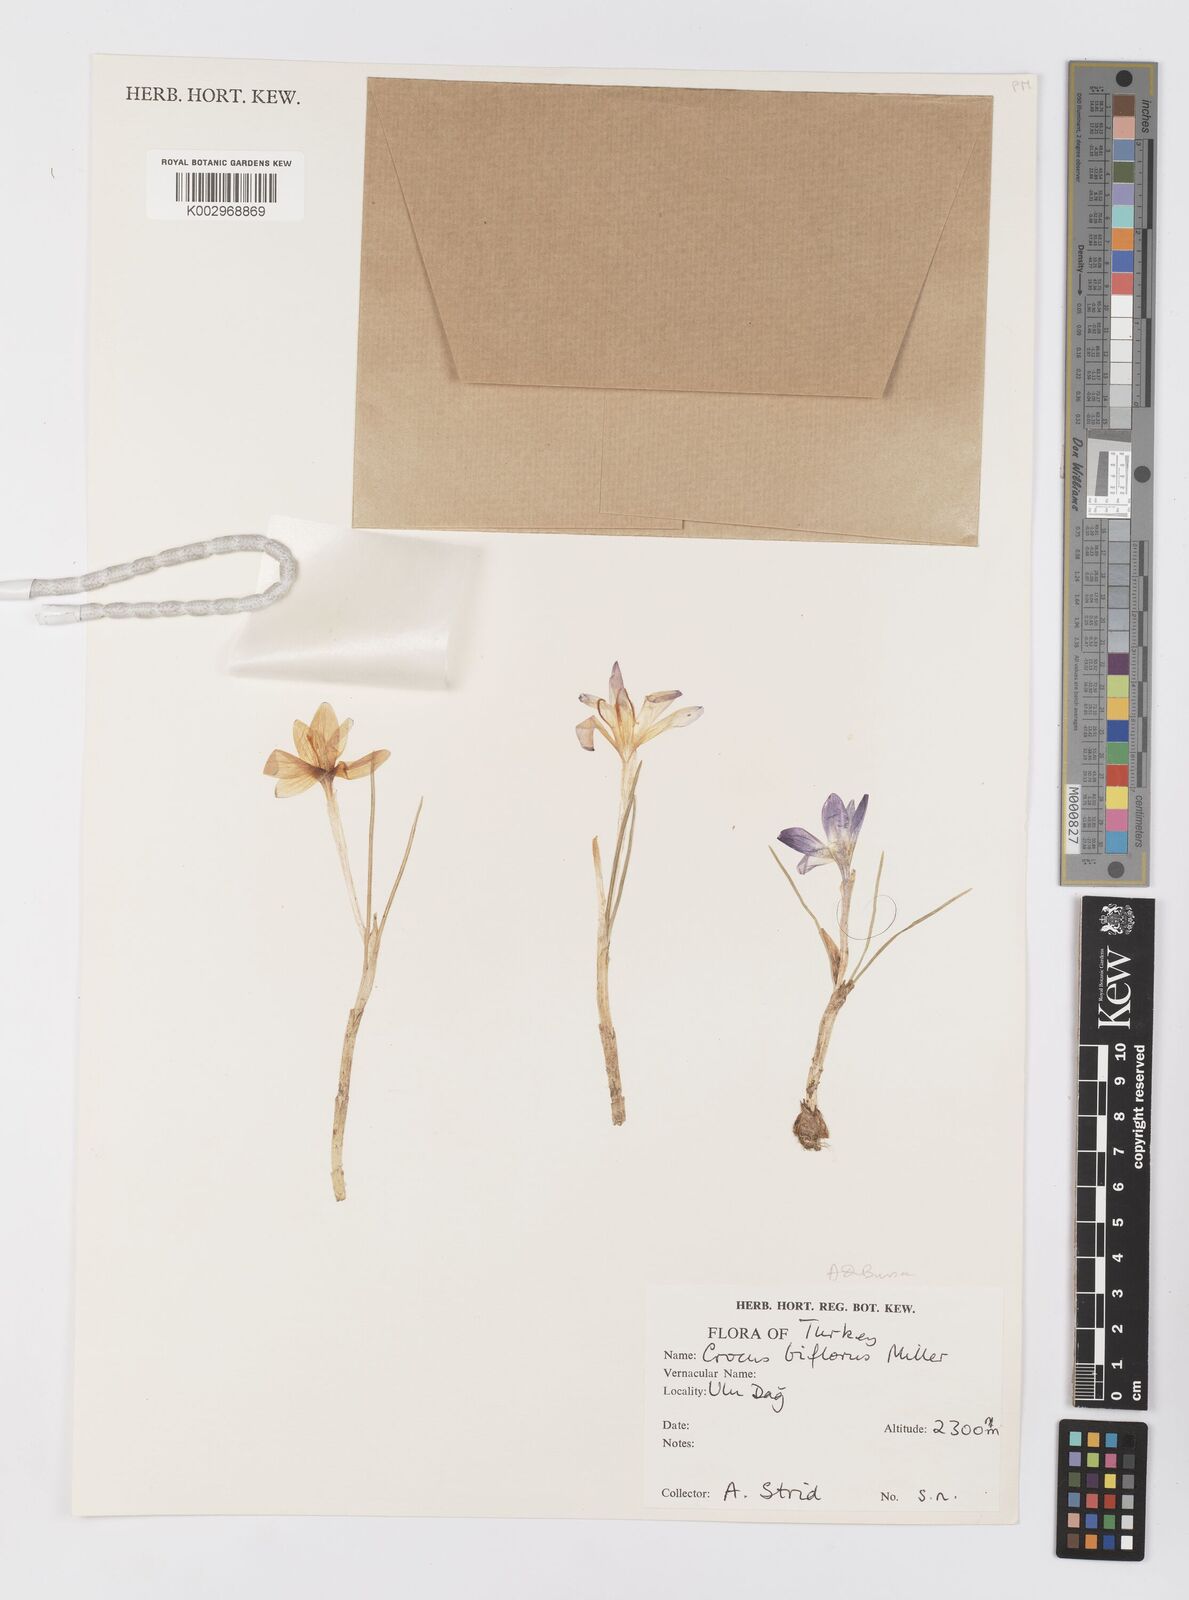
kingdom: Plantae
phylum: Tracheophyta
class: Liliopsida
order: Asparagales
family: Iridaceae
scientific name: Iridaceae
